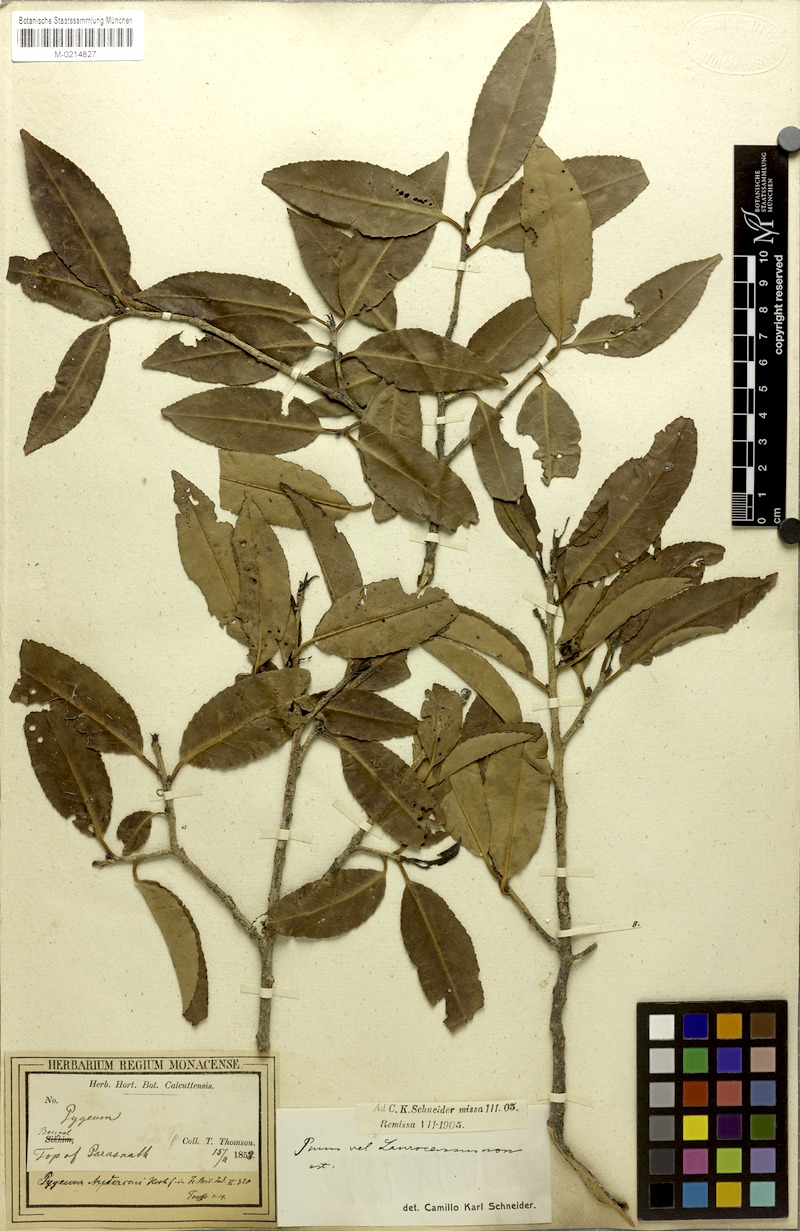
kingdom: Plantae
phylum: Tracheophyta
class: Magnoliopsida
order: Rosales
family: Rosaceae
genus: Prunus
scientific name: Prunus pygeoides
